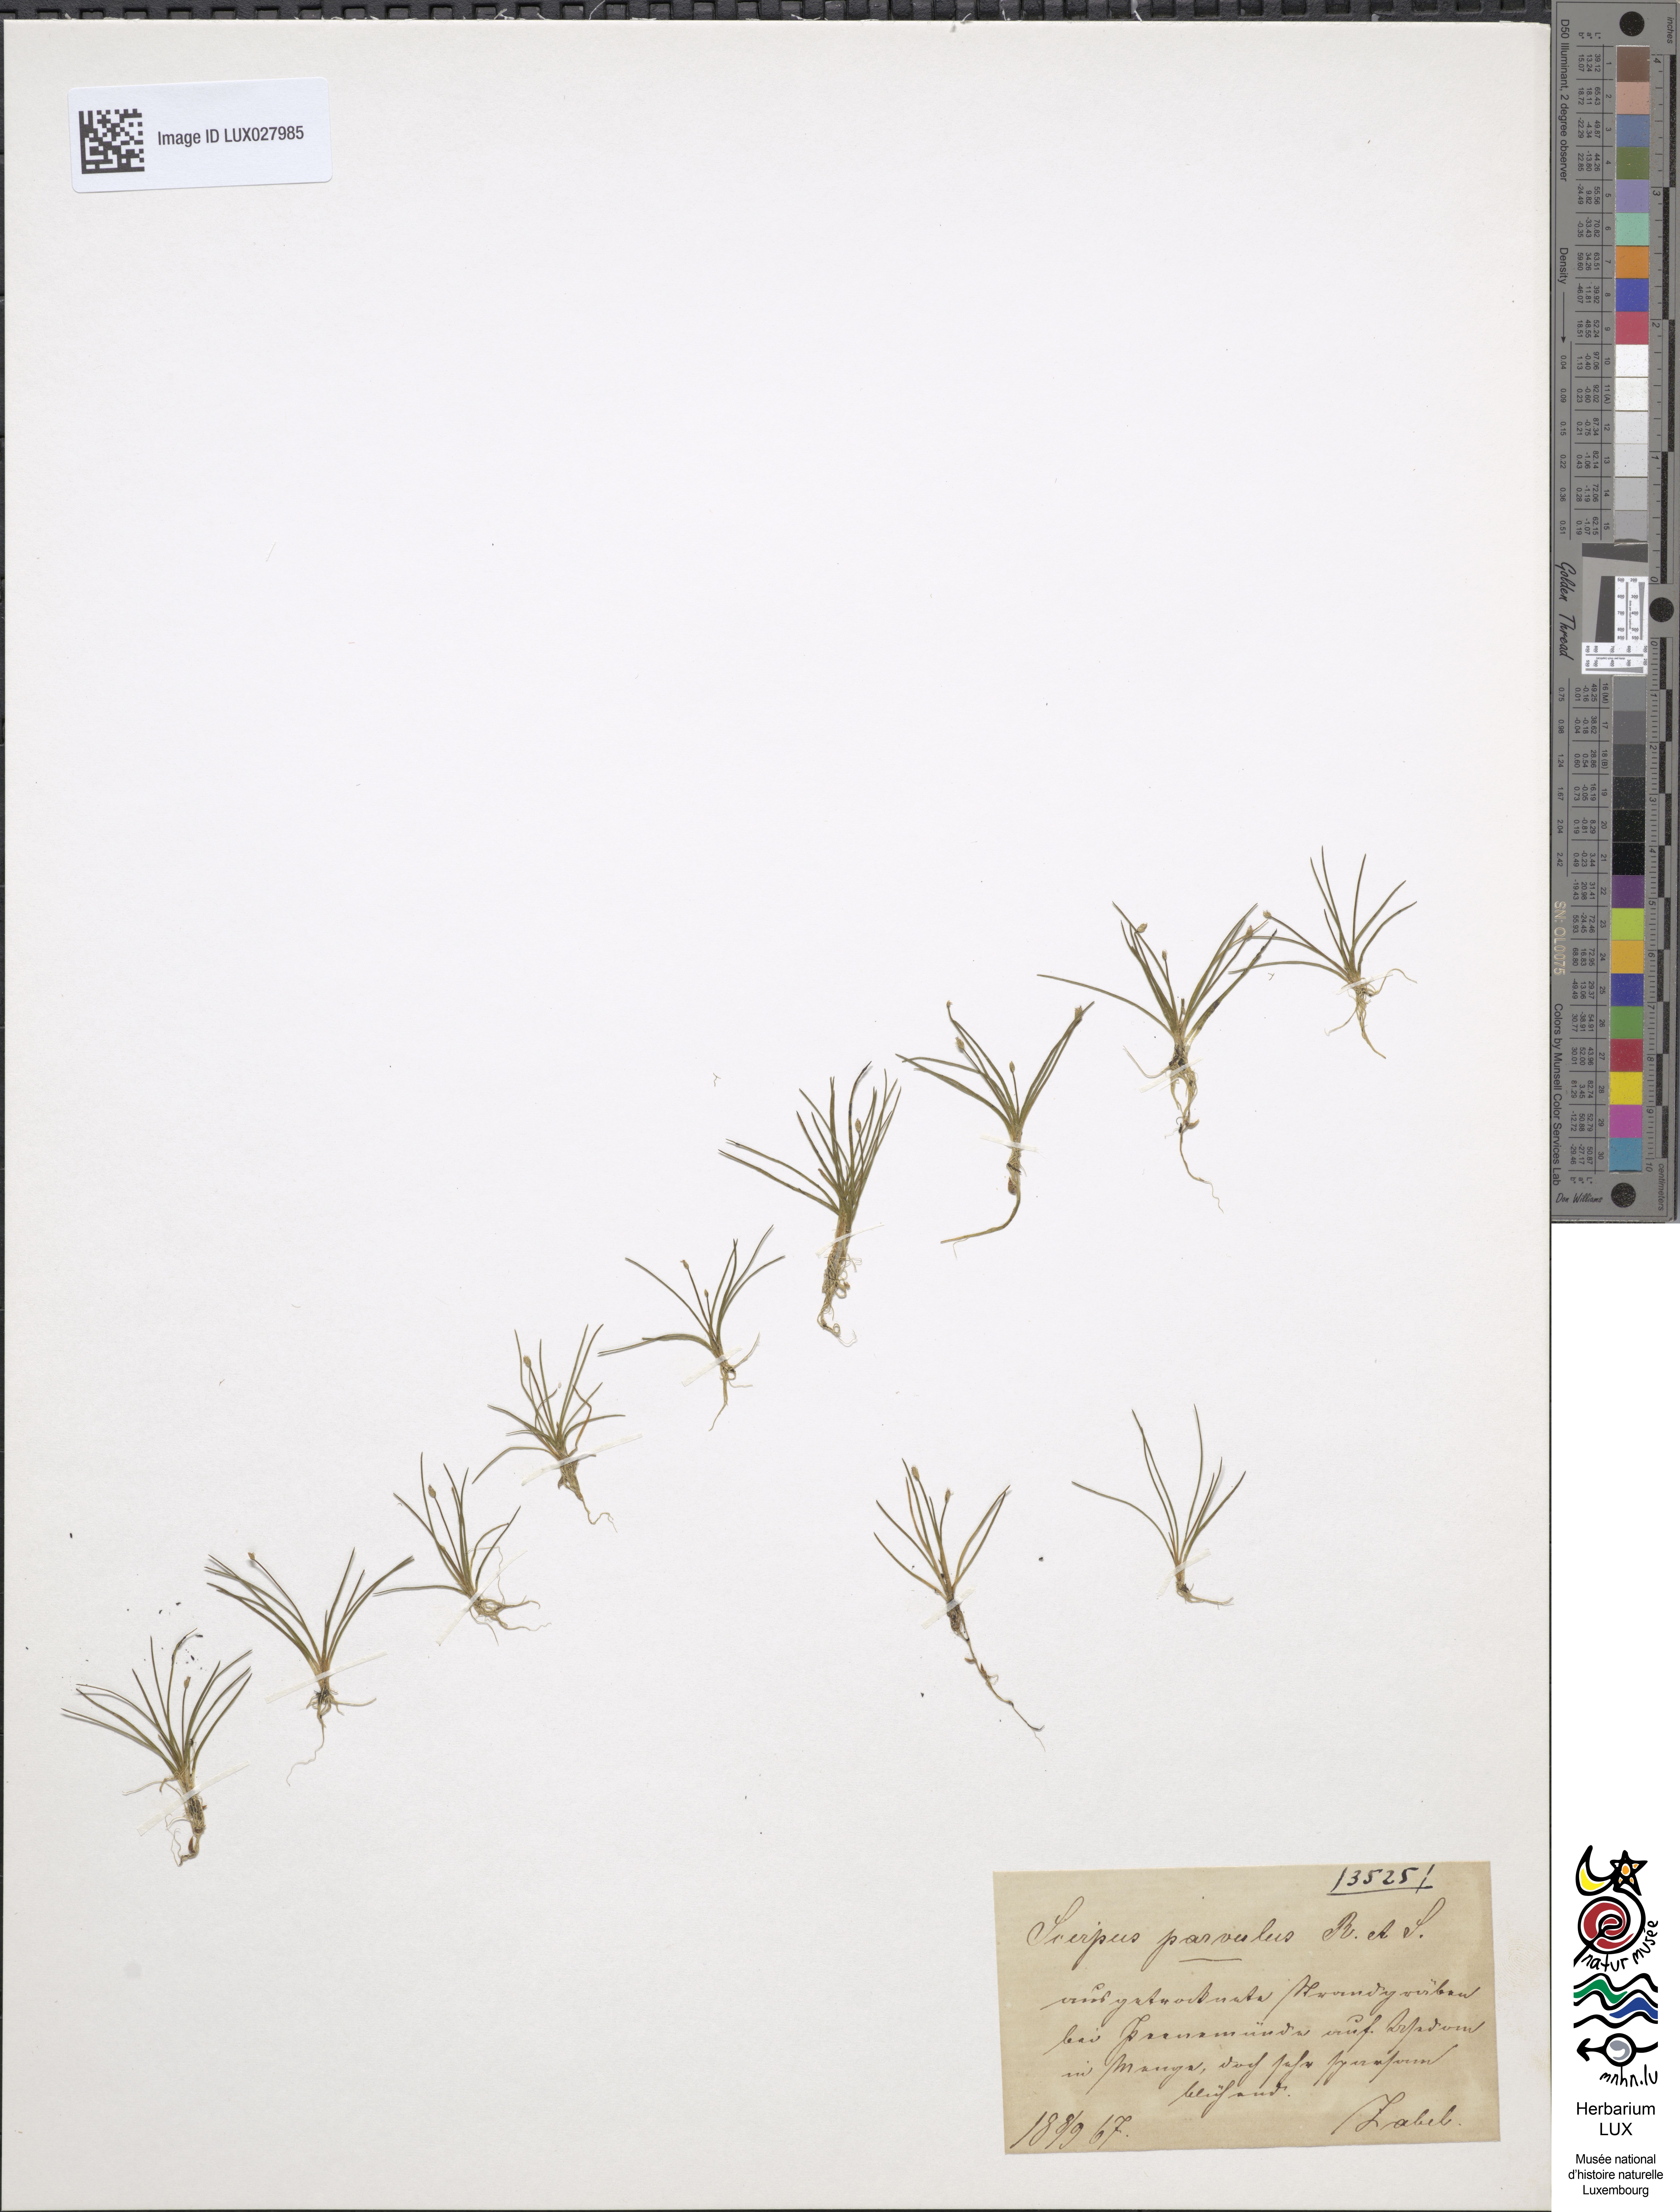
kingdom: Plantae
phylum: Tracheophyta
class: Liliopsida
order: Poales
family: Cyperaceae
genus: Eleocharis
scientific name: Eleocharis parvula
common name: Dwarf spike-rush
